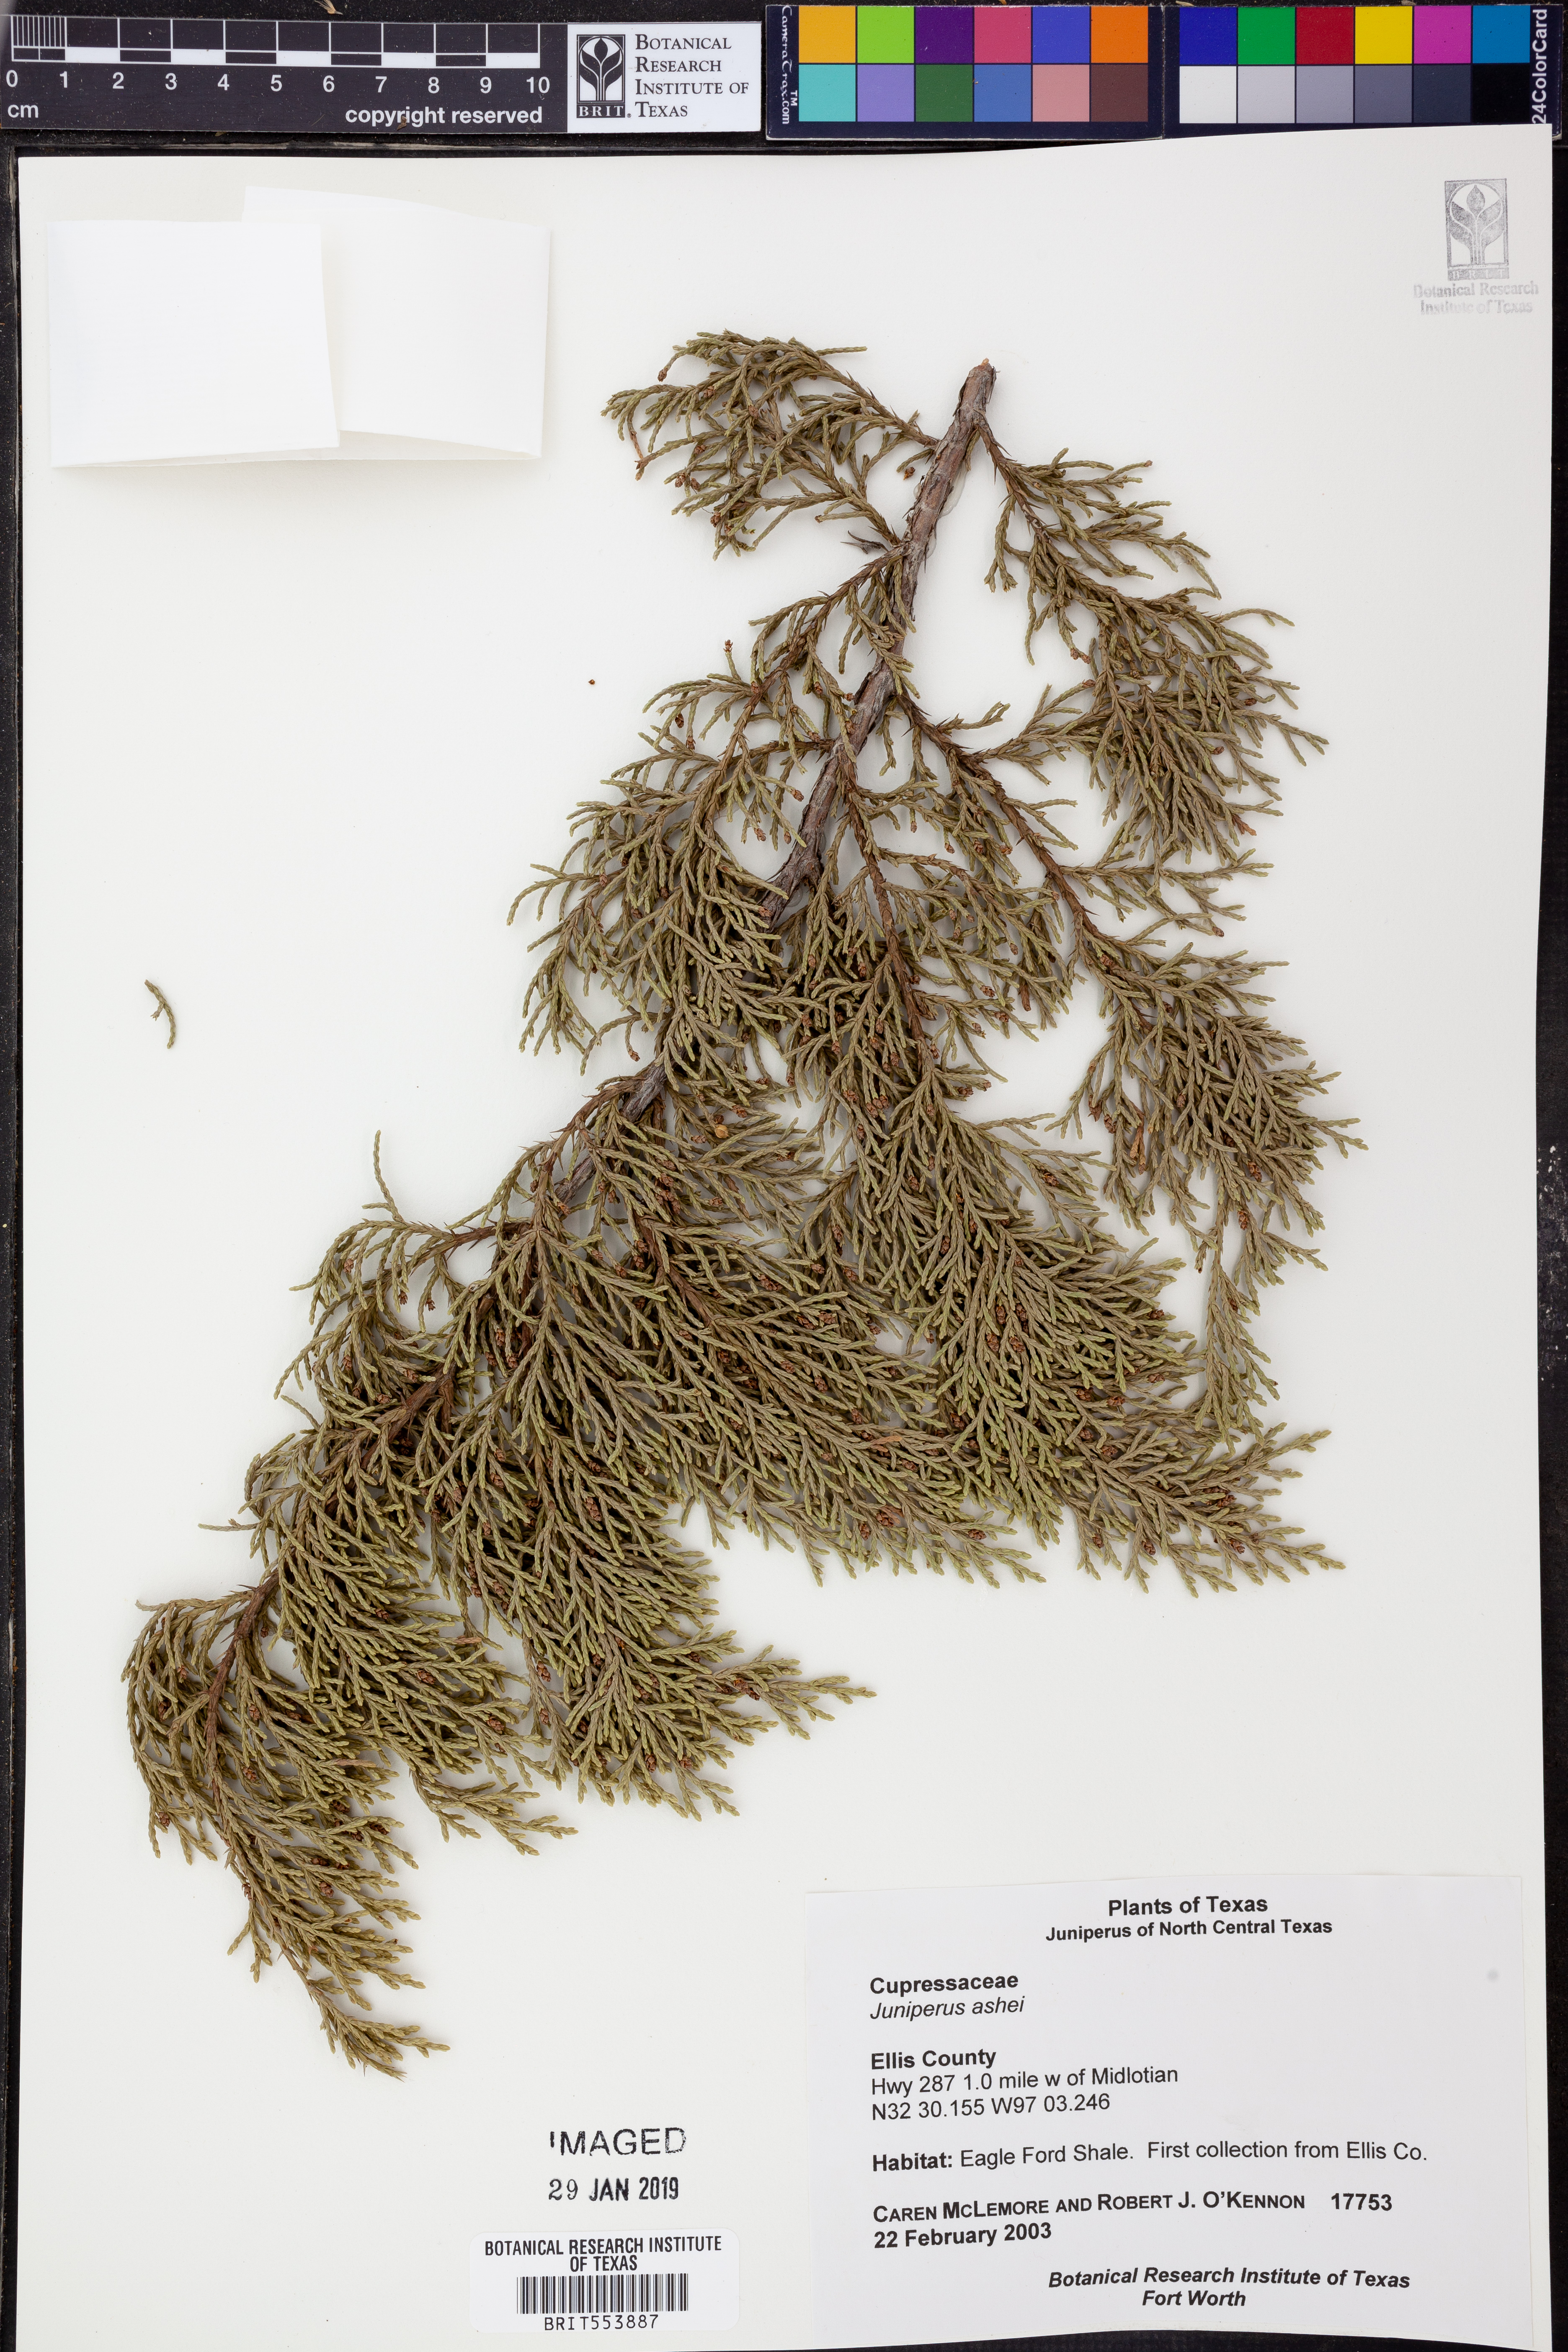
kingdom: Plantae
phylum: Tracheophyta
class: Pinopsida
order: Pinales
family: Cupressaceae
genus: Juniperus
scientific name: Juniperus ashei
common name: Mexican juniper
